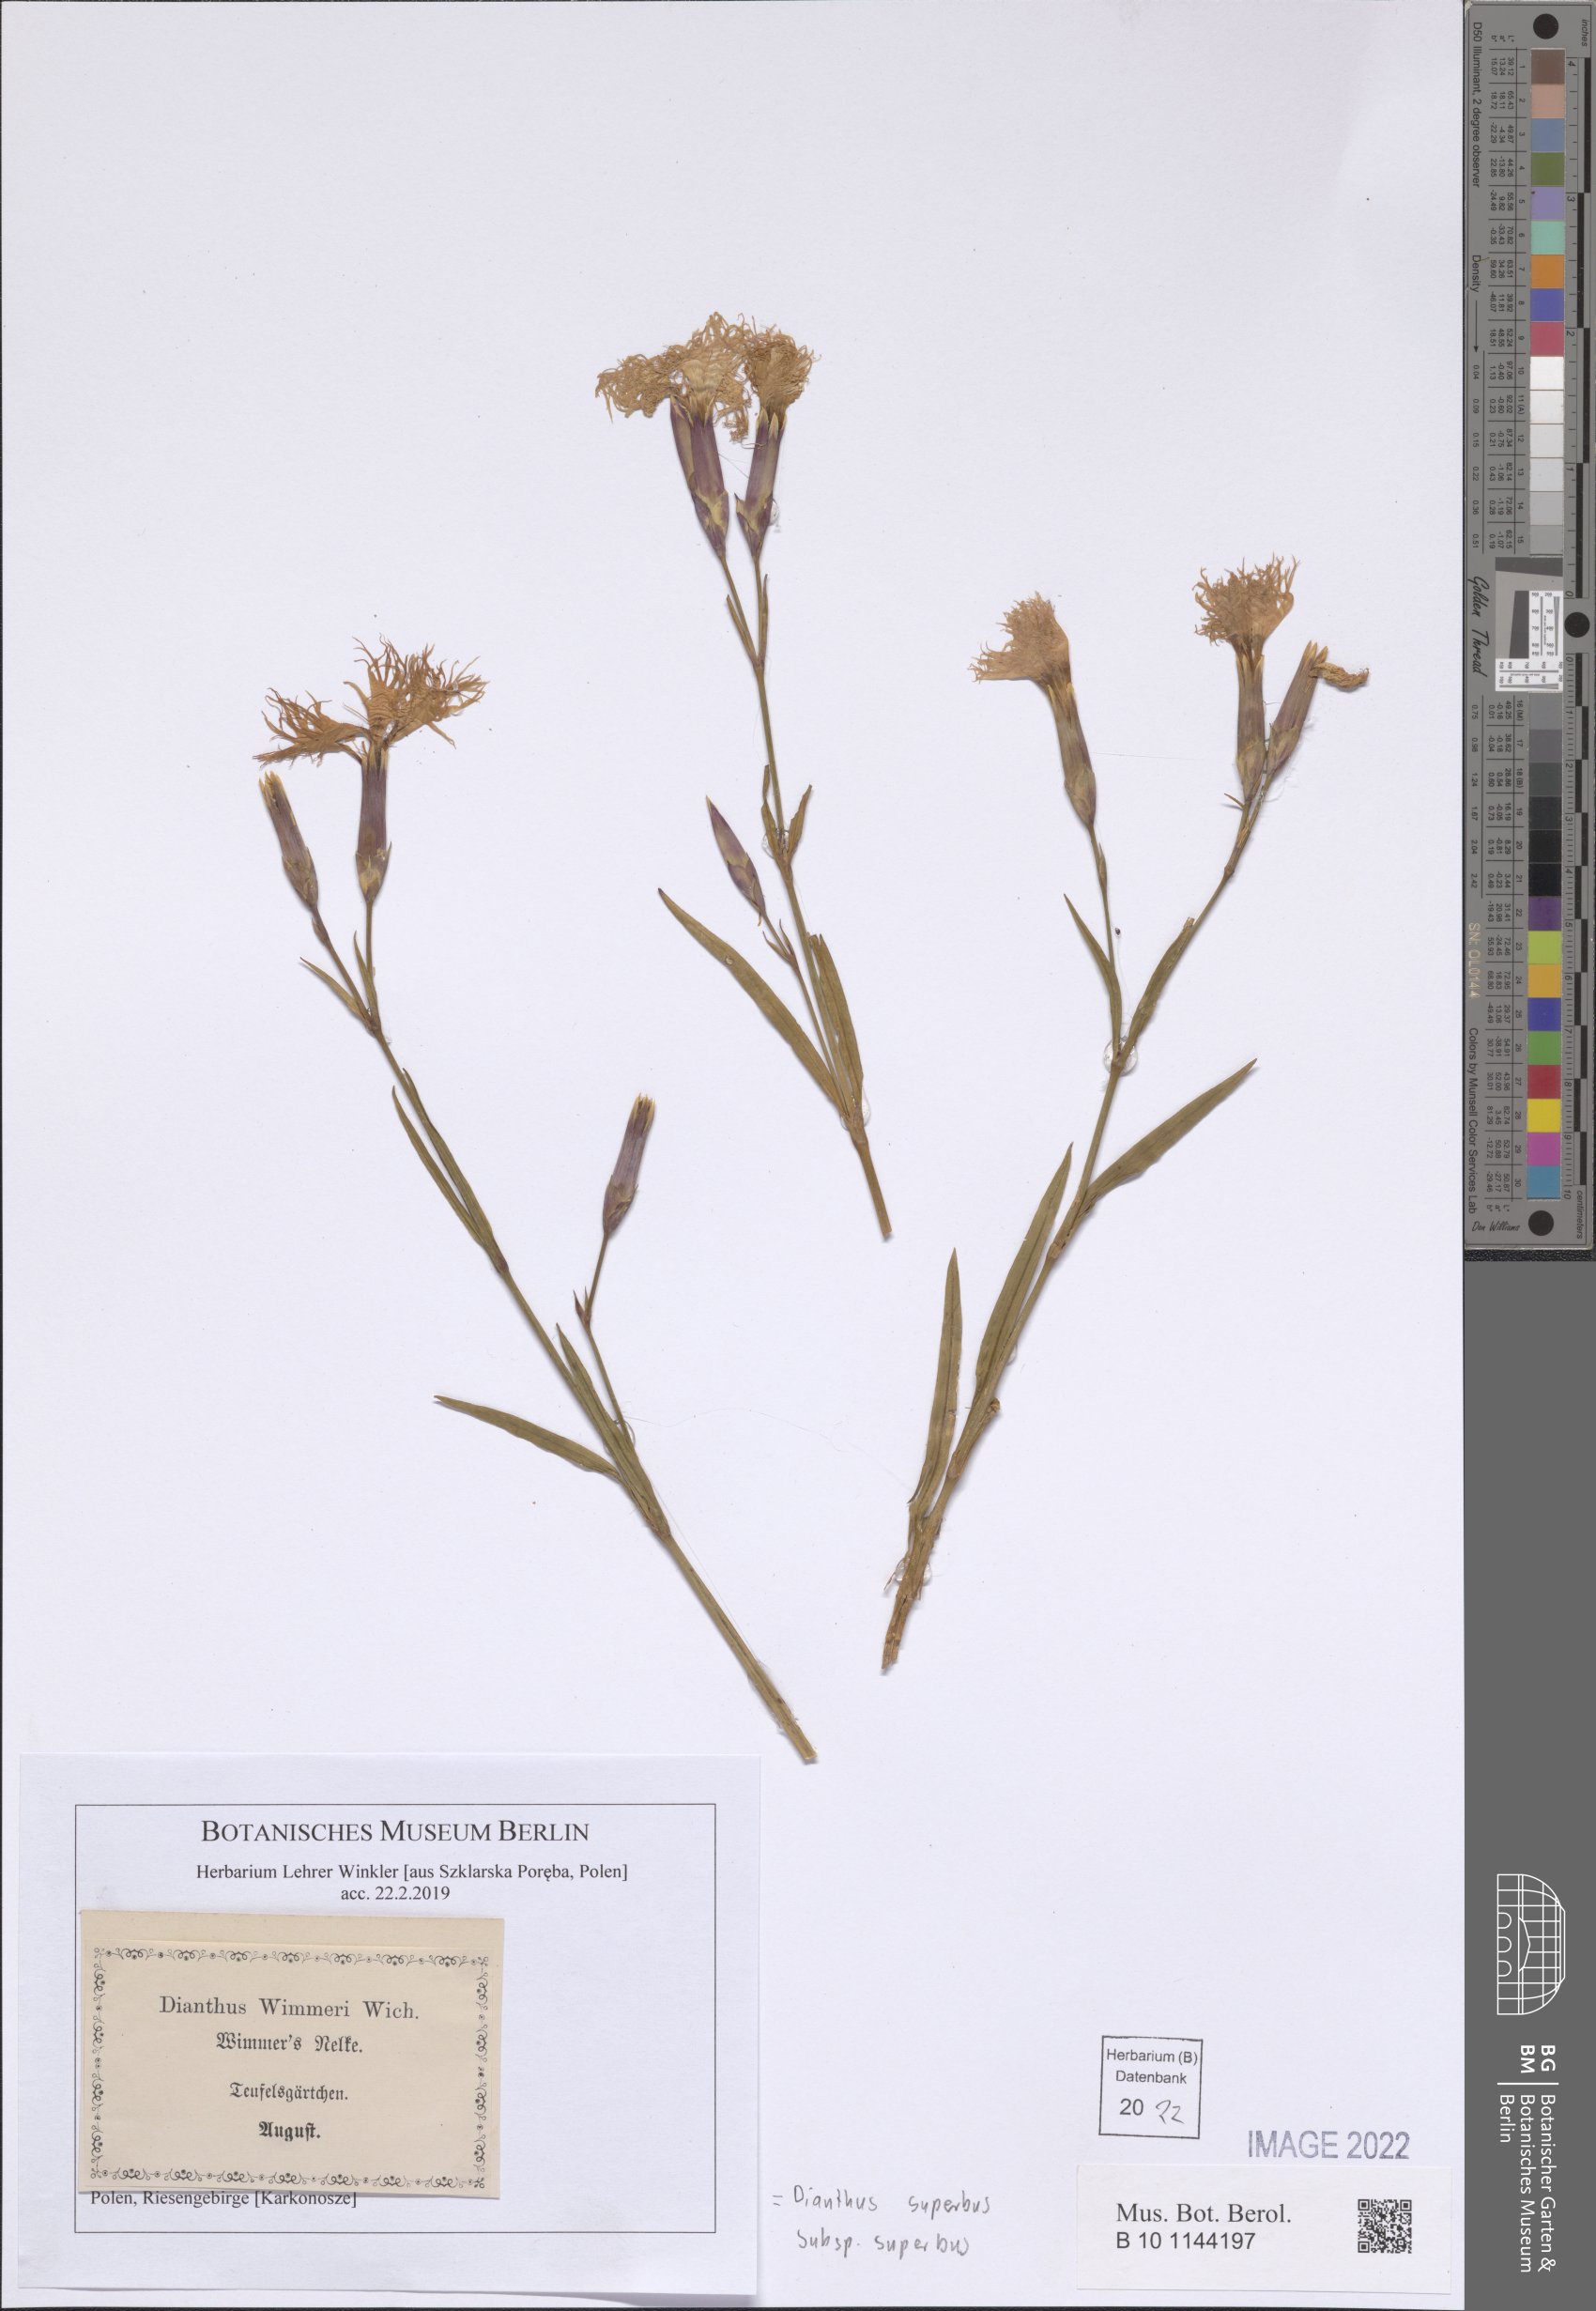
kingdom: Plantae
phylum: Tracheophyta
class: Magnoliopsida
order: Caryophyllales
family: Caryophyllaceae
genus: Dianthus
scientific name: Dianthus superbus
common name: Fringed pink
